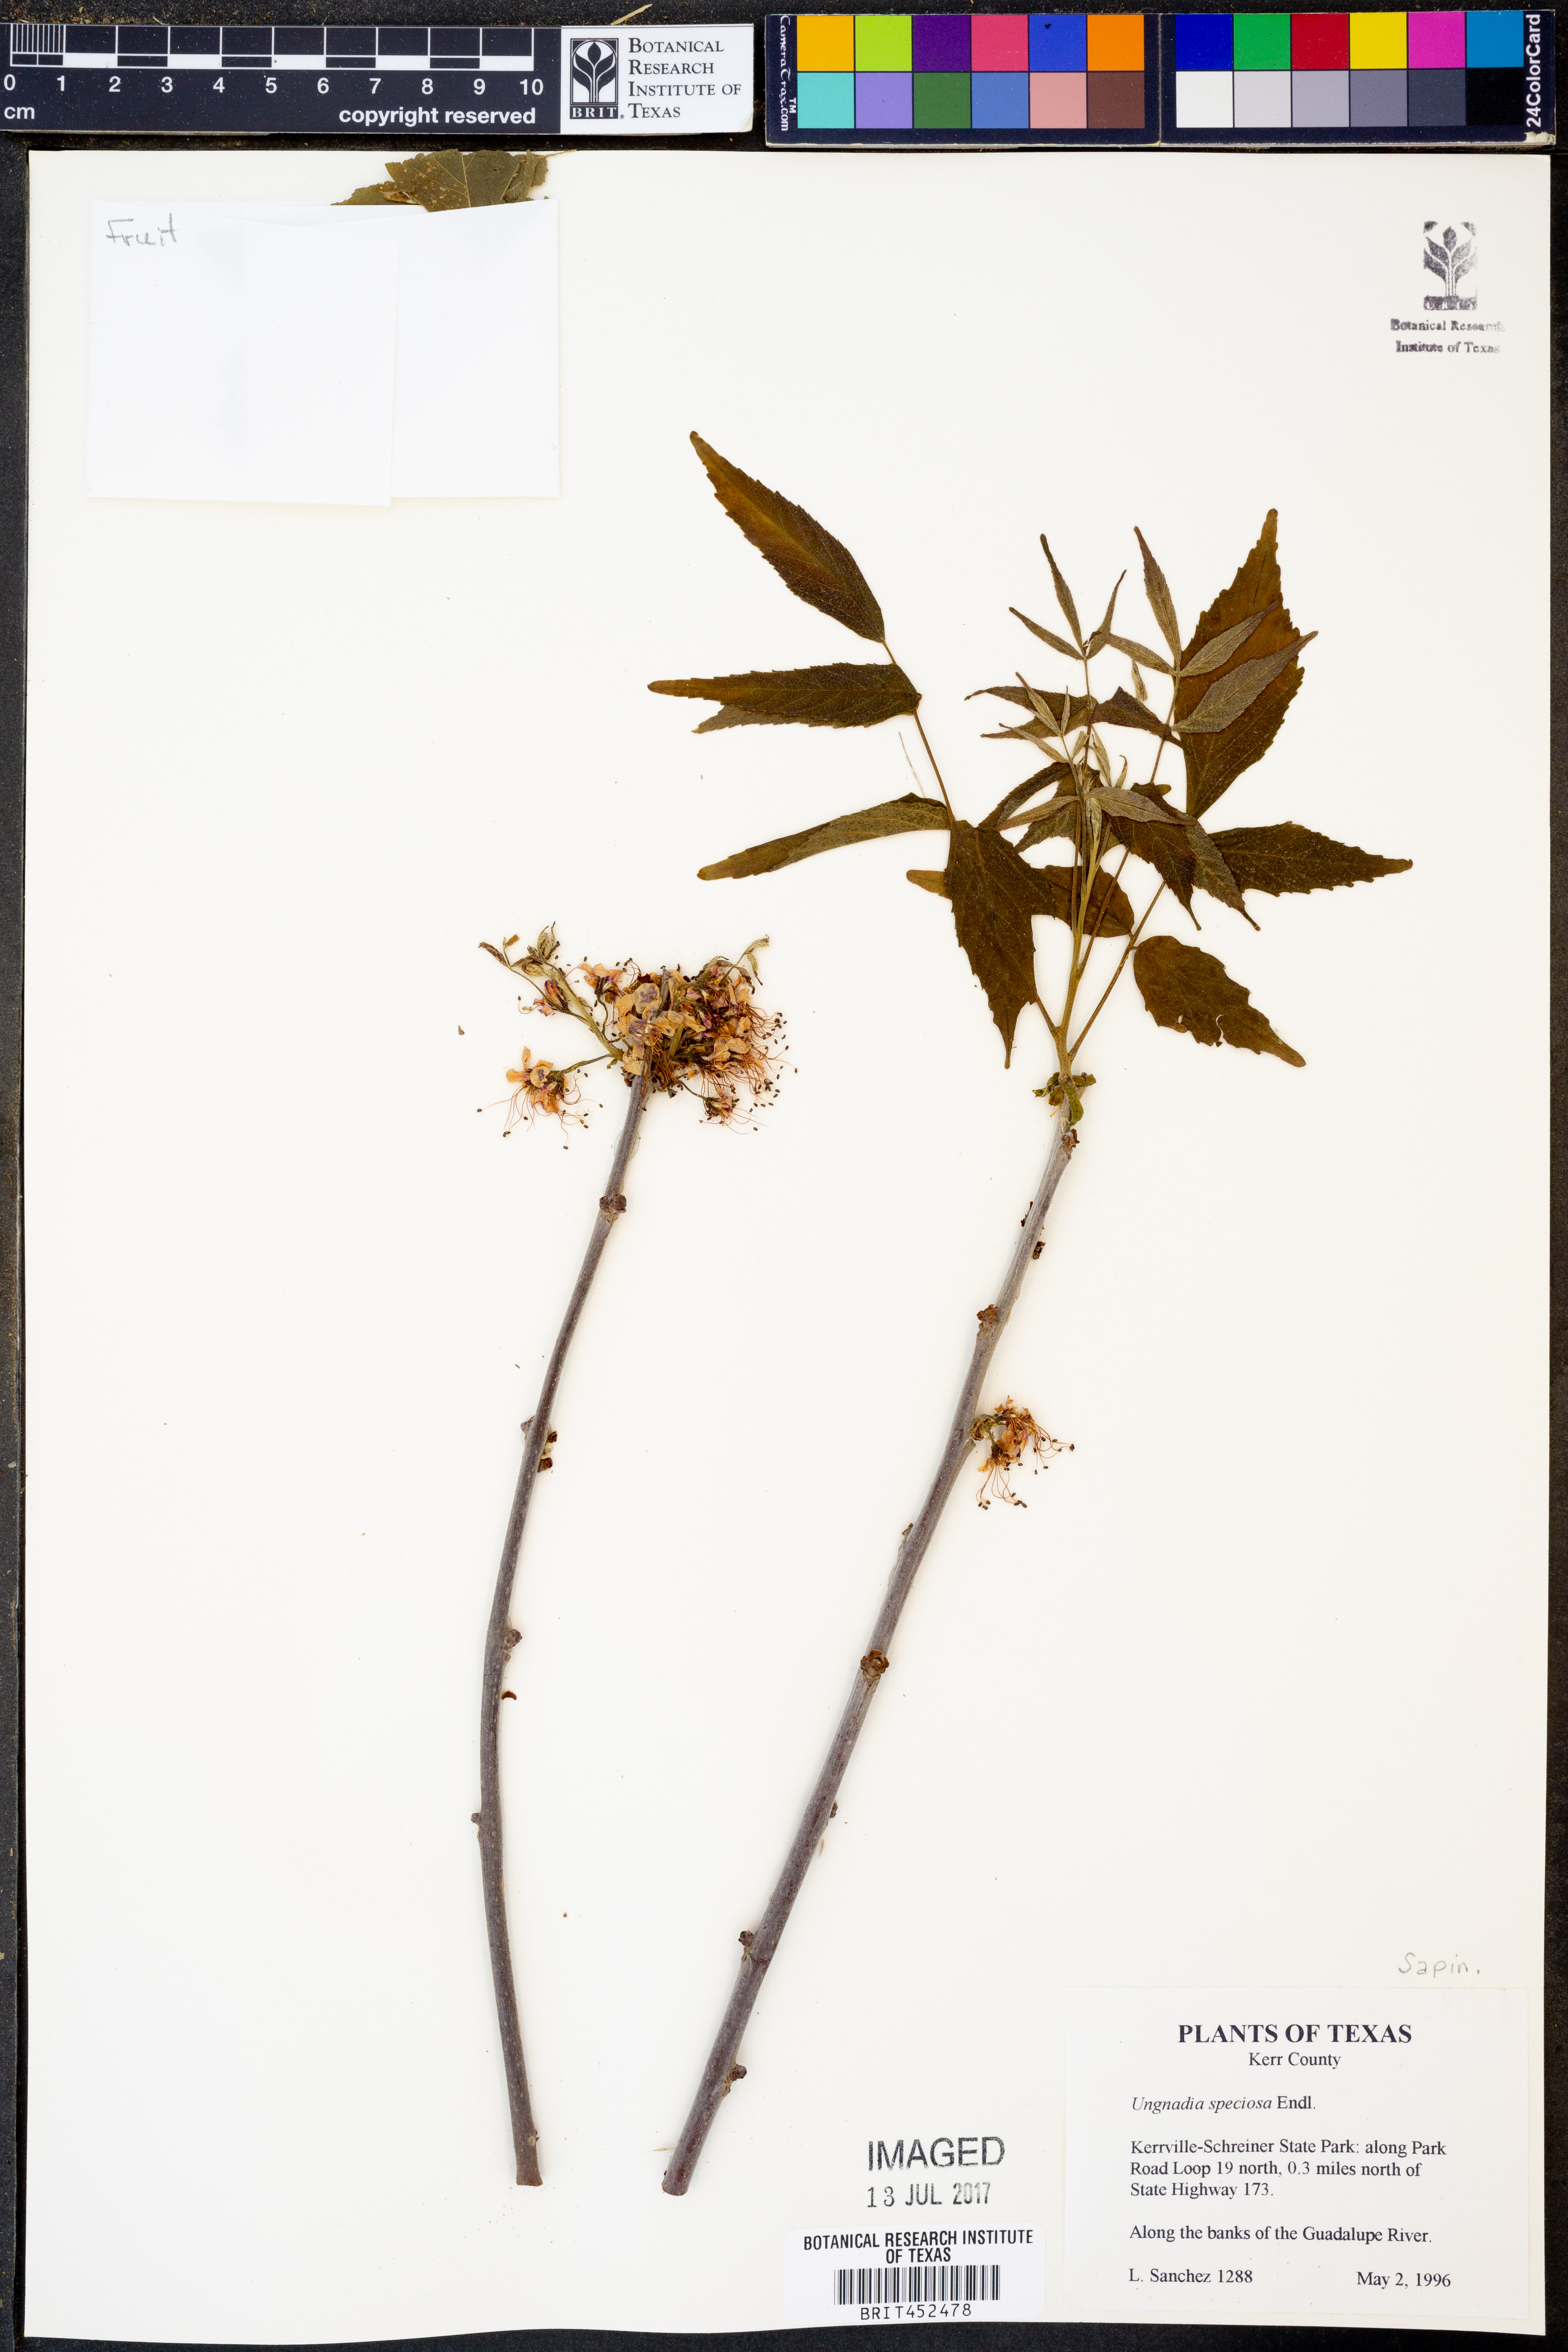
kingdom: Plantae
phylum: Tracheophyta
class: Magnoliopsida
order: Sapindales
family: Sapindaceae
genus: Ungnadia
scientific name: Ungnadia speciosa
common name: Texas-buckeye
